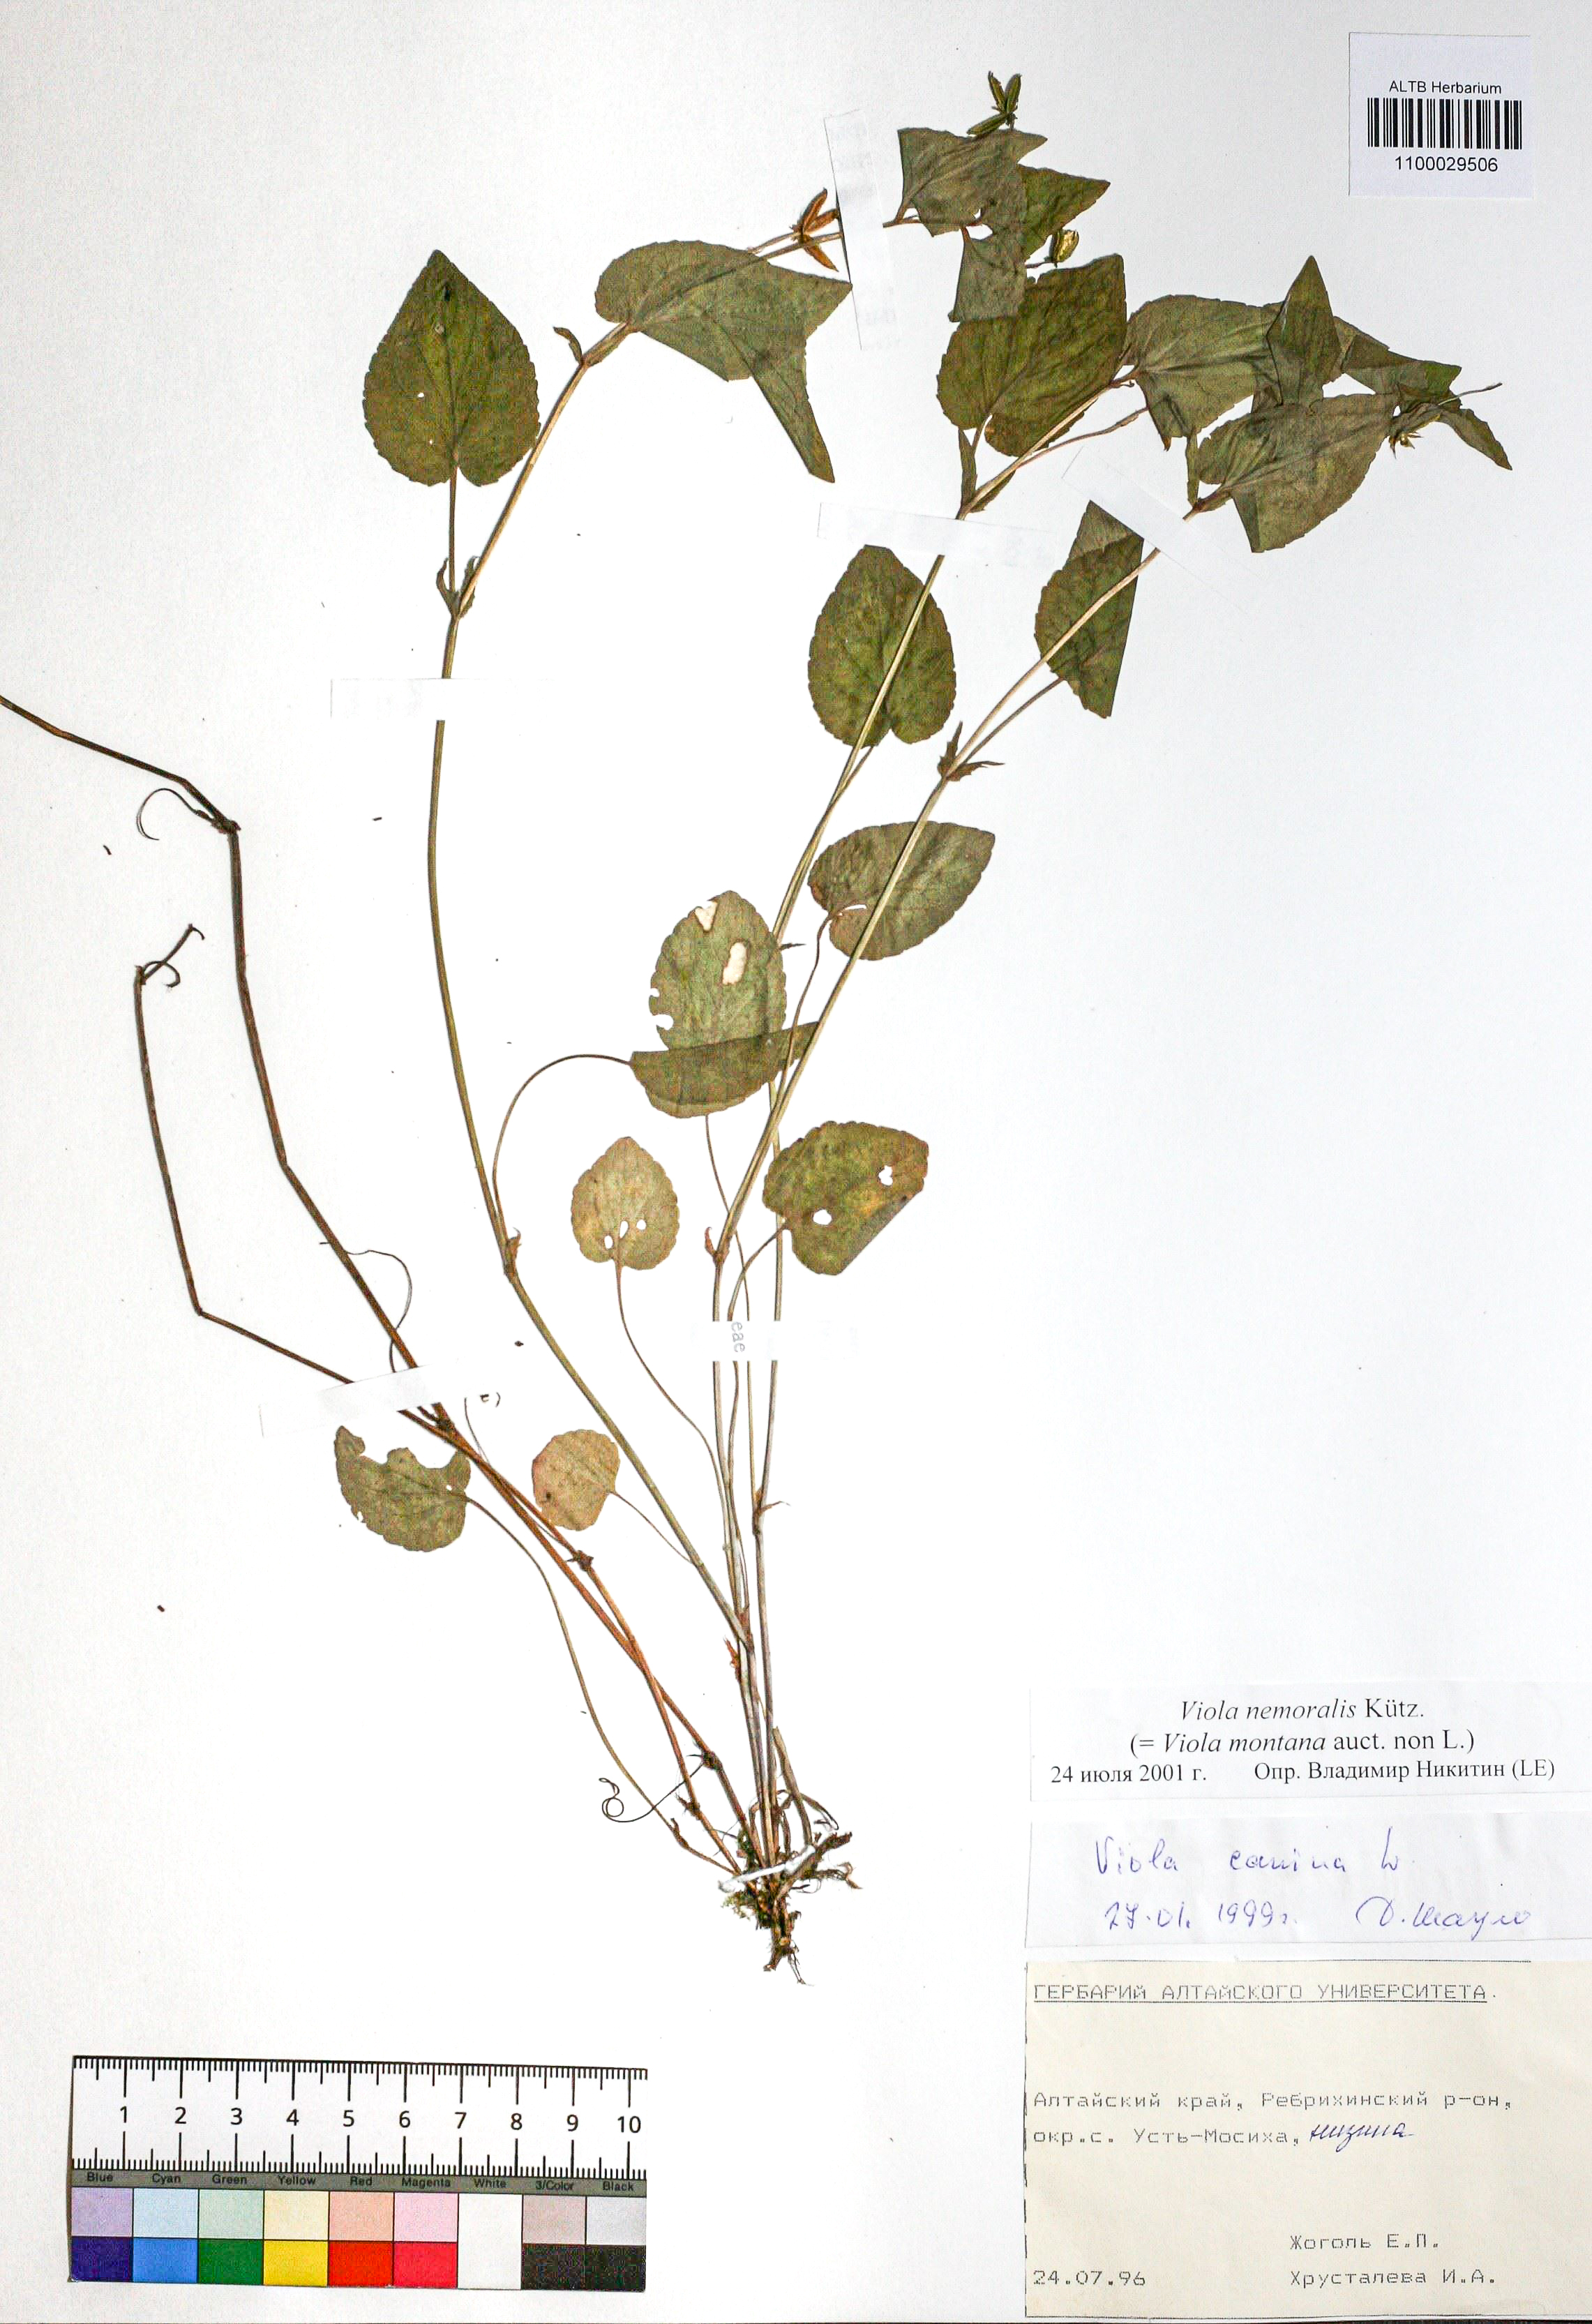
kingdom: Plantae
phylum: Tracheophyta
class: Magnoliopsida
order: Malpighiales
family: Violaceae
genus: Viola
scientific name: Viola ruppii
